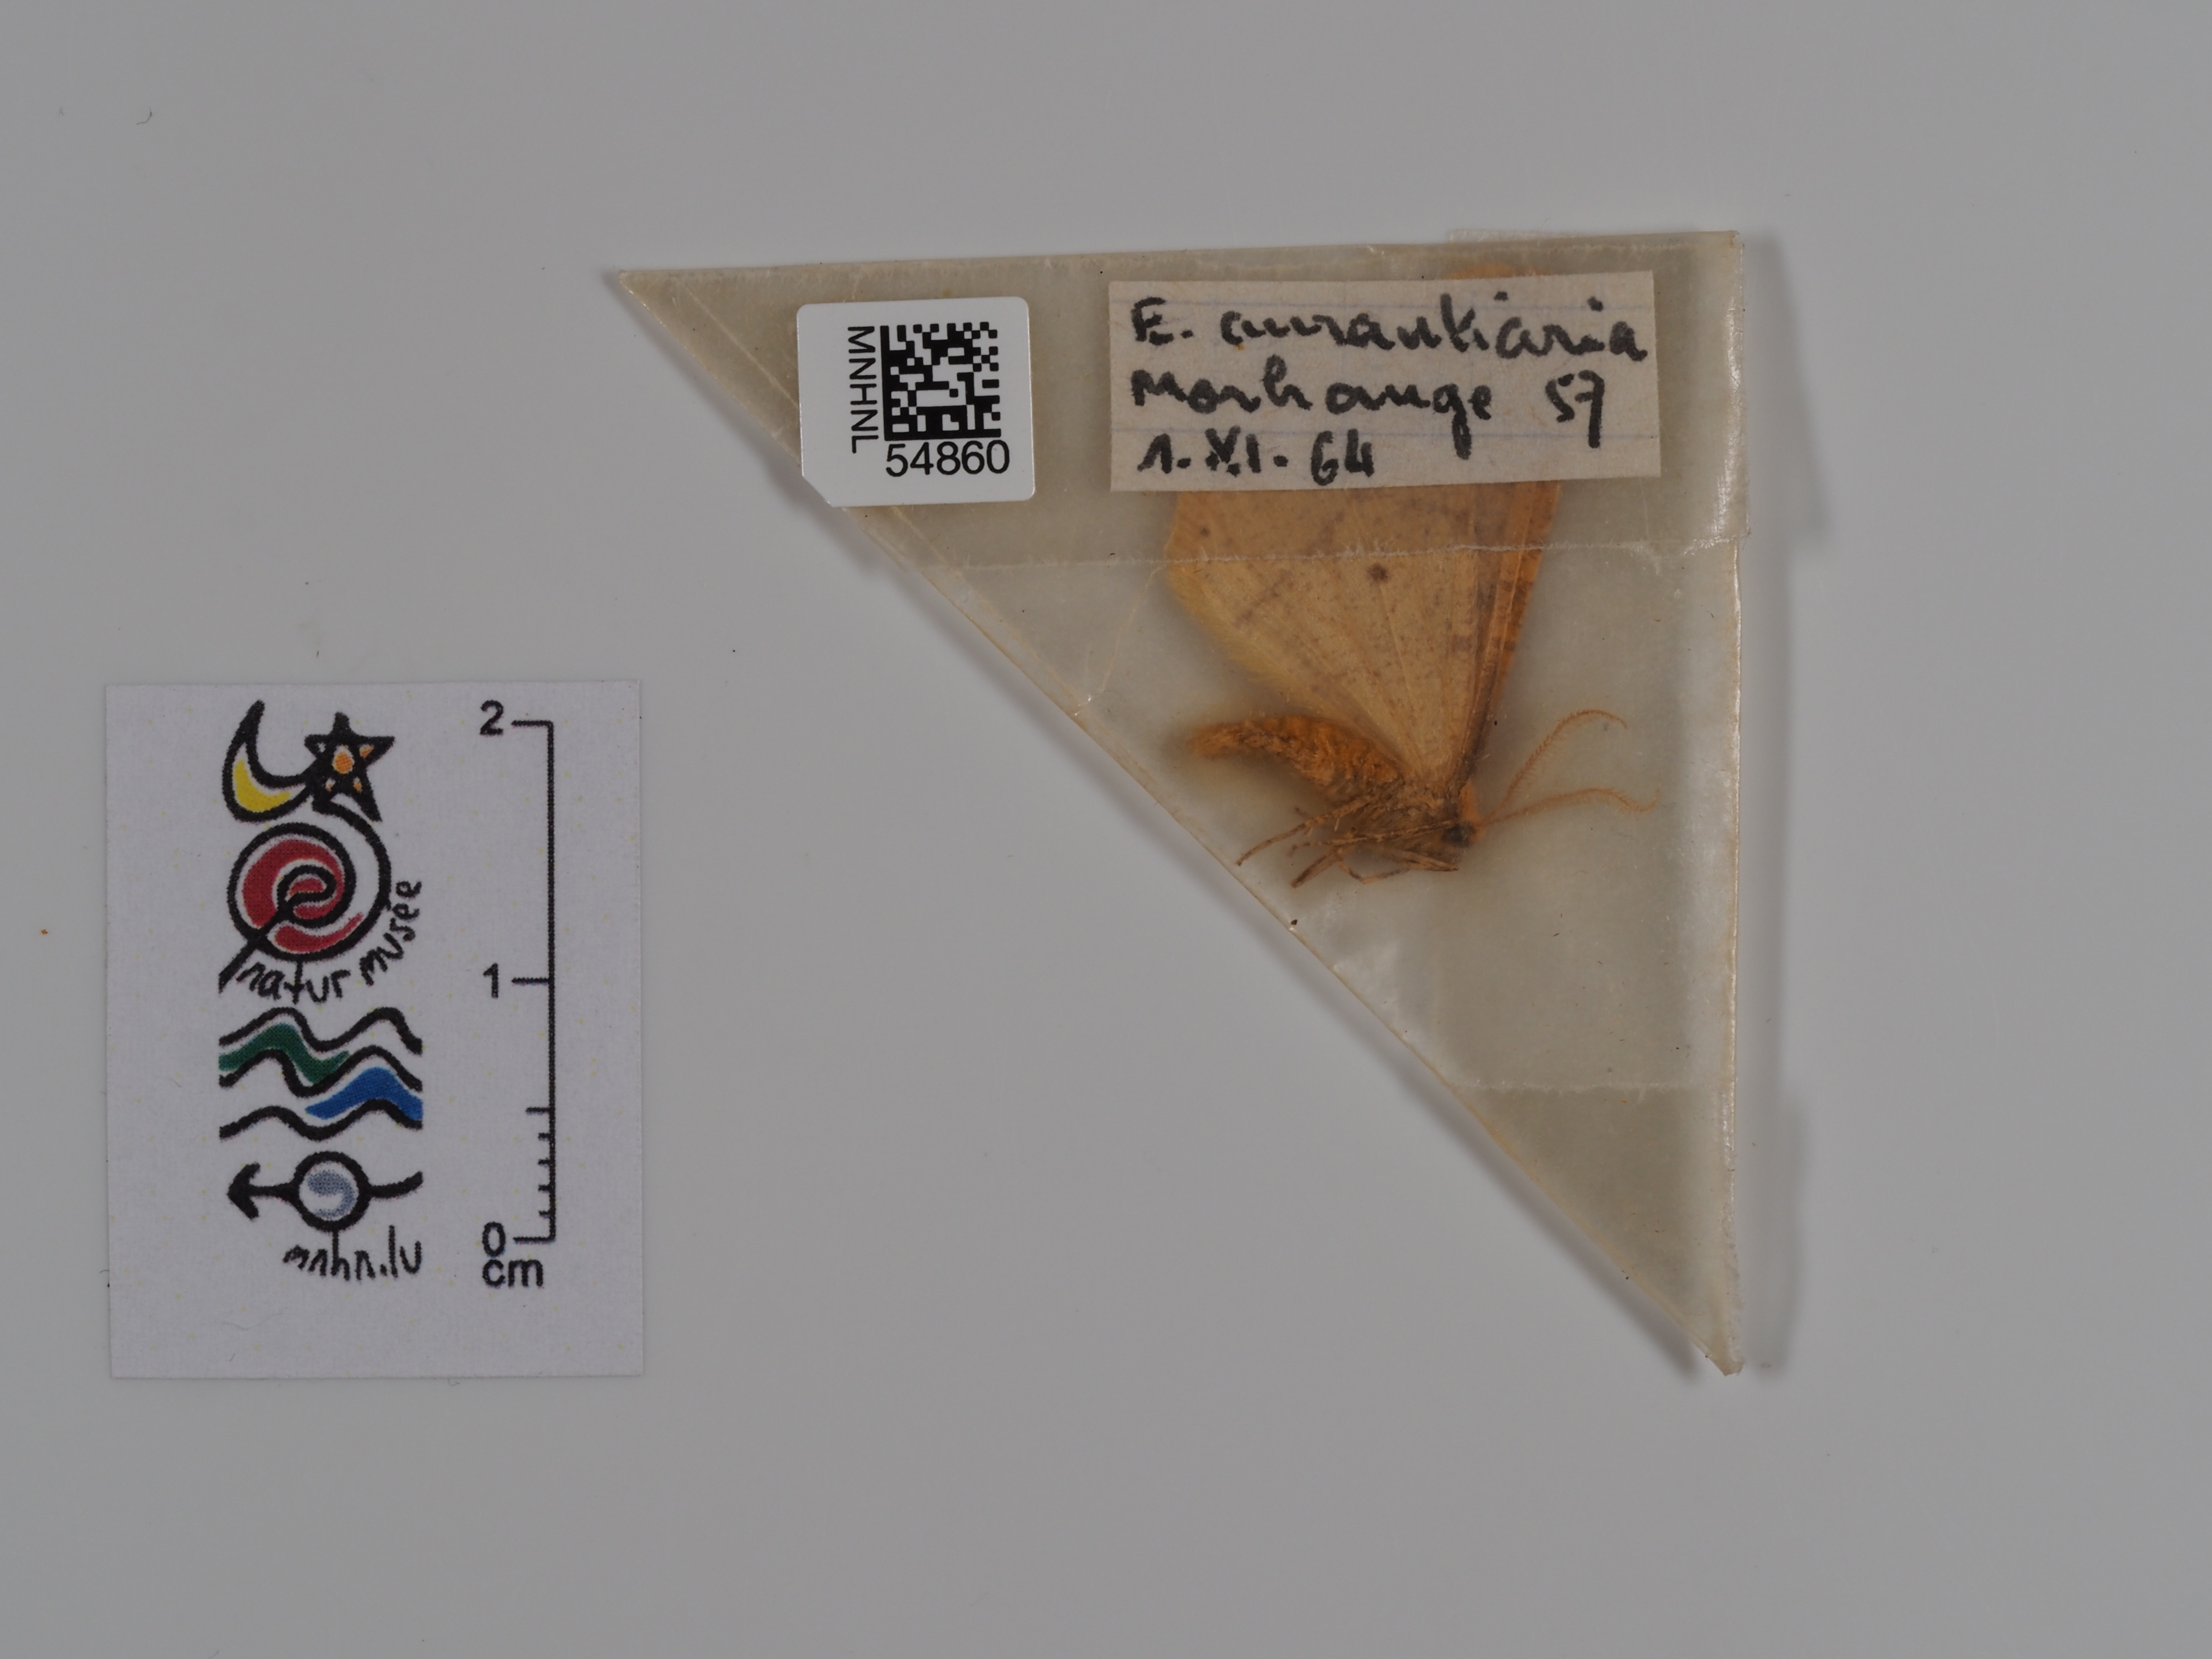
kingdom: Animalia
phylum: Arthropoda
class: Insecta
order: Lepidoptera
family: Geometridae
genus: Erannis
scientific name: Erannis
